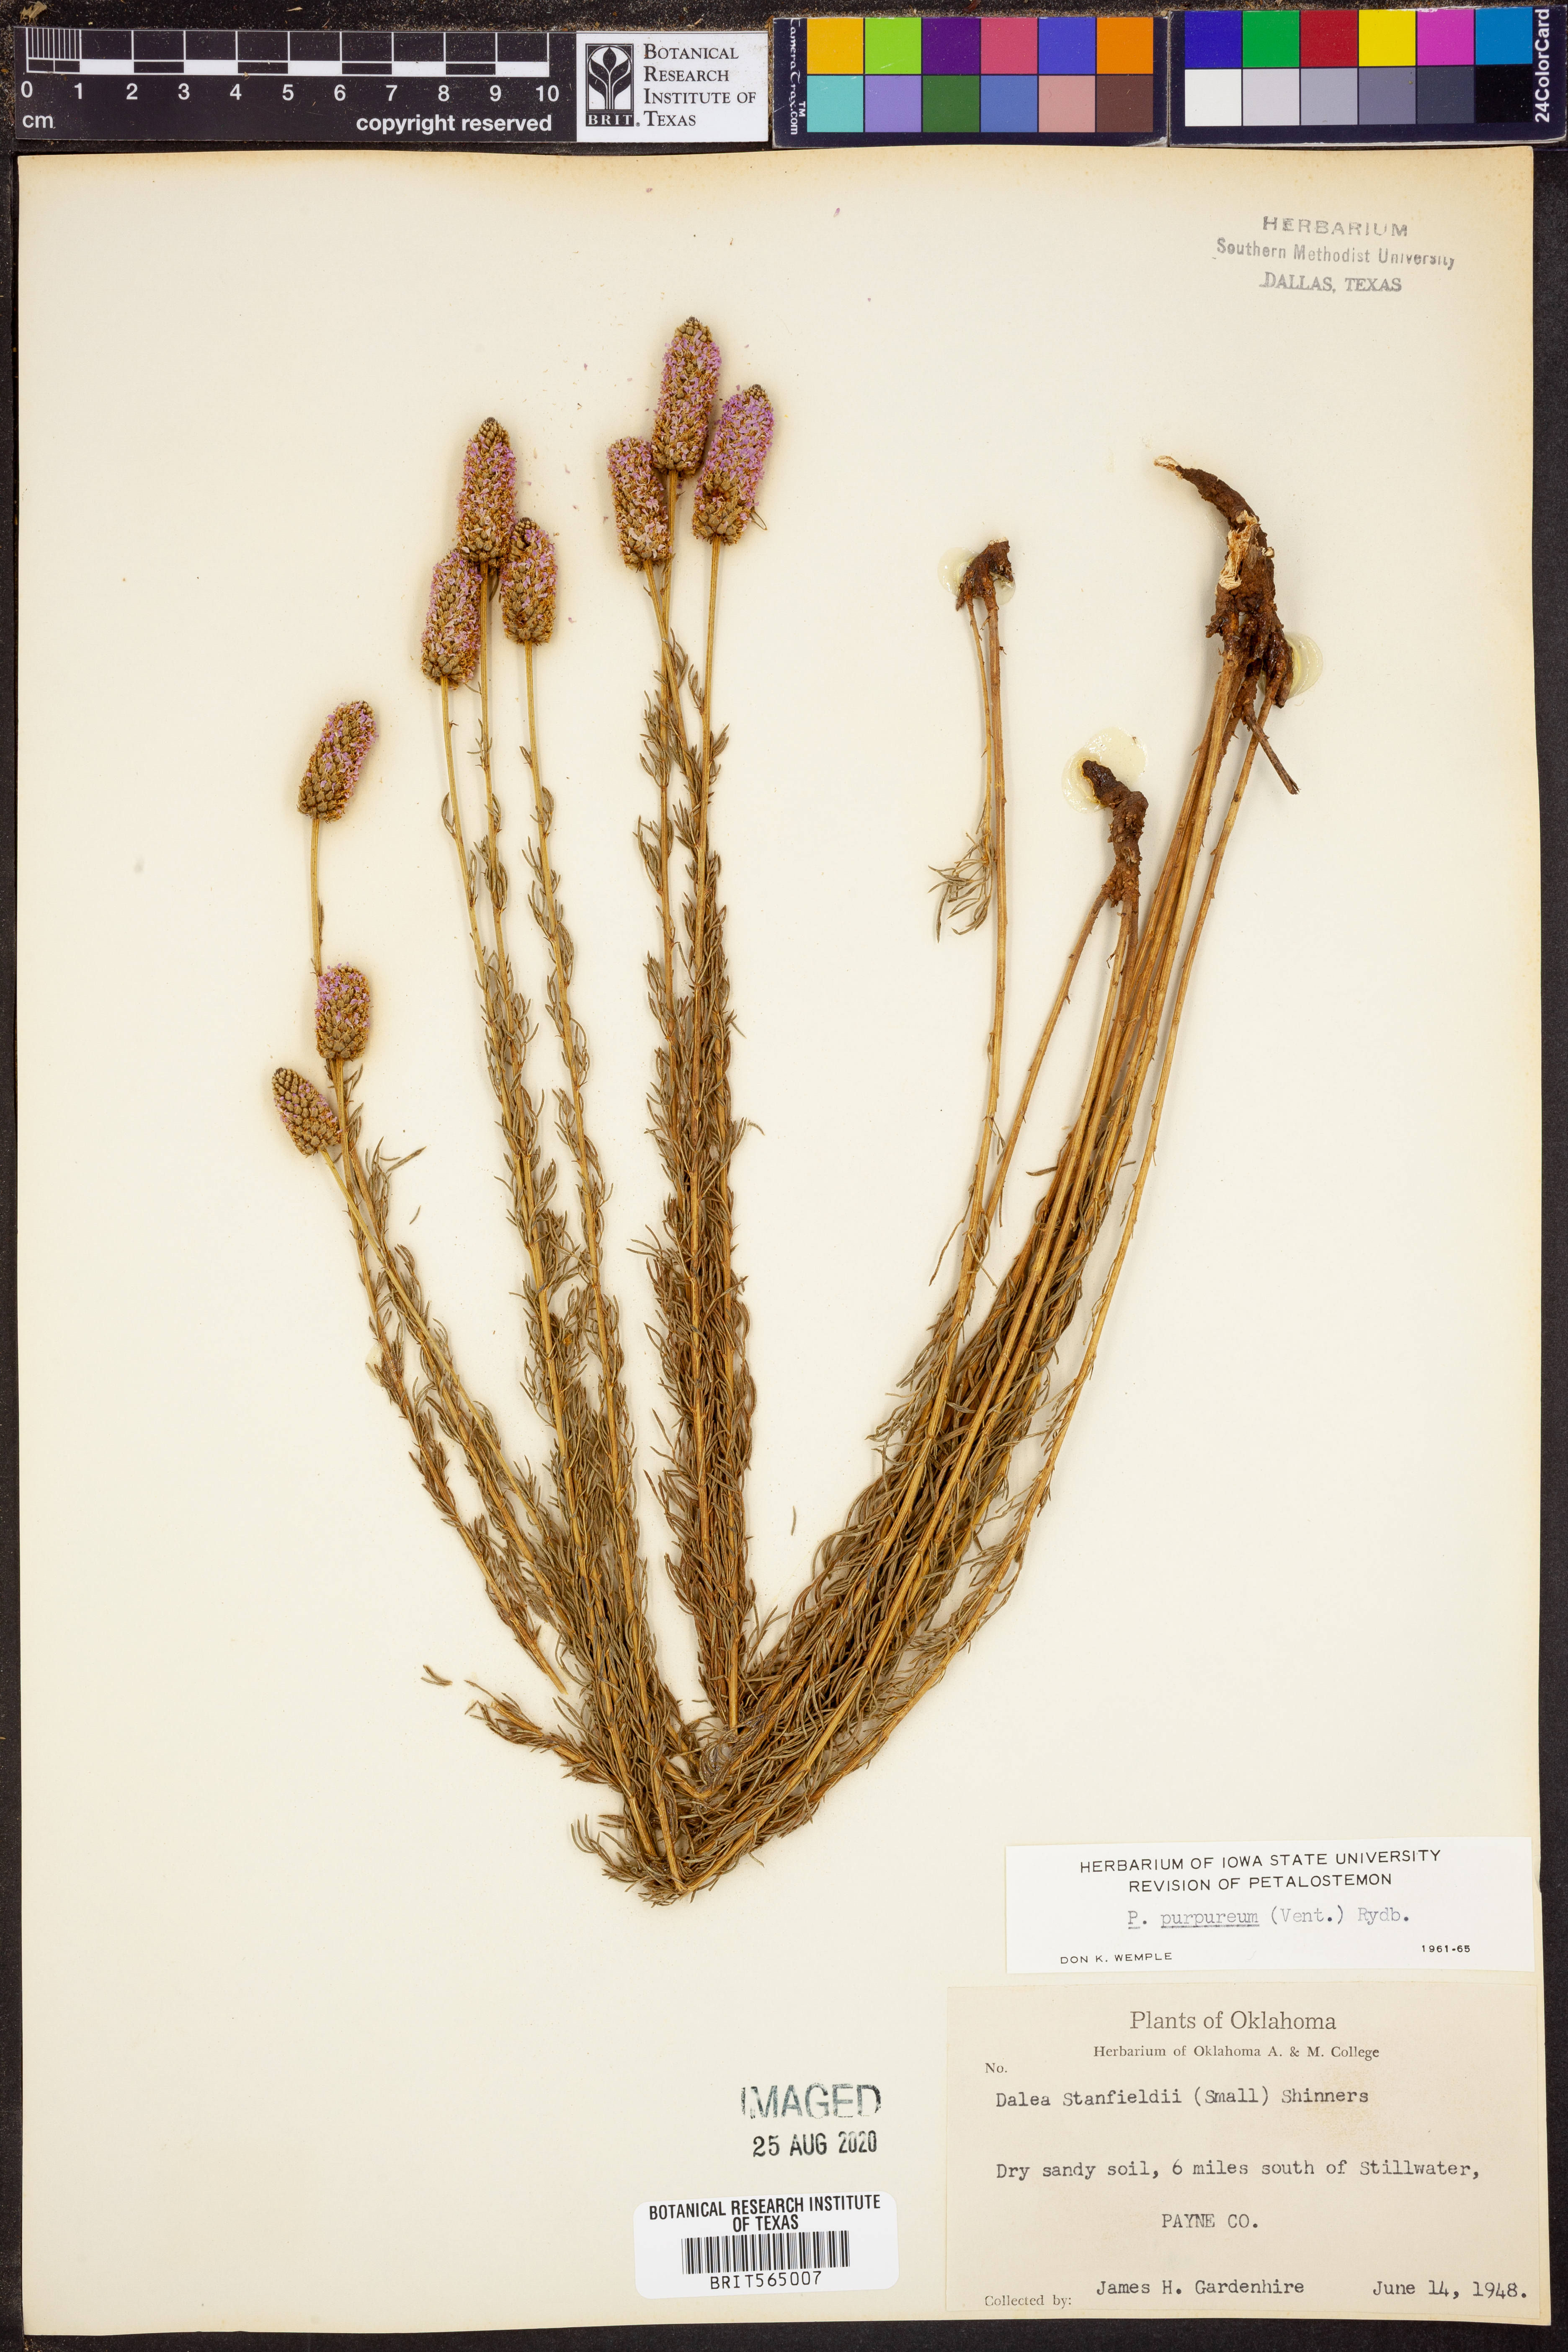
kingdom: Plantae
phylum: Tracheophyta
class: Magnoliopsida
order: Fabales
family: Fabaceae
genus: Dalea
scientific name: Dalea purpurea
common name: Purple prairie-clover
